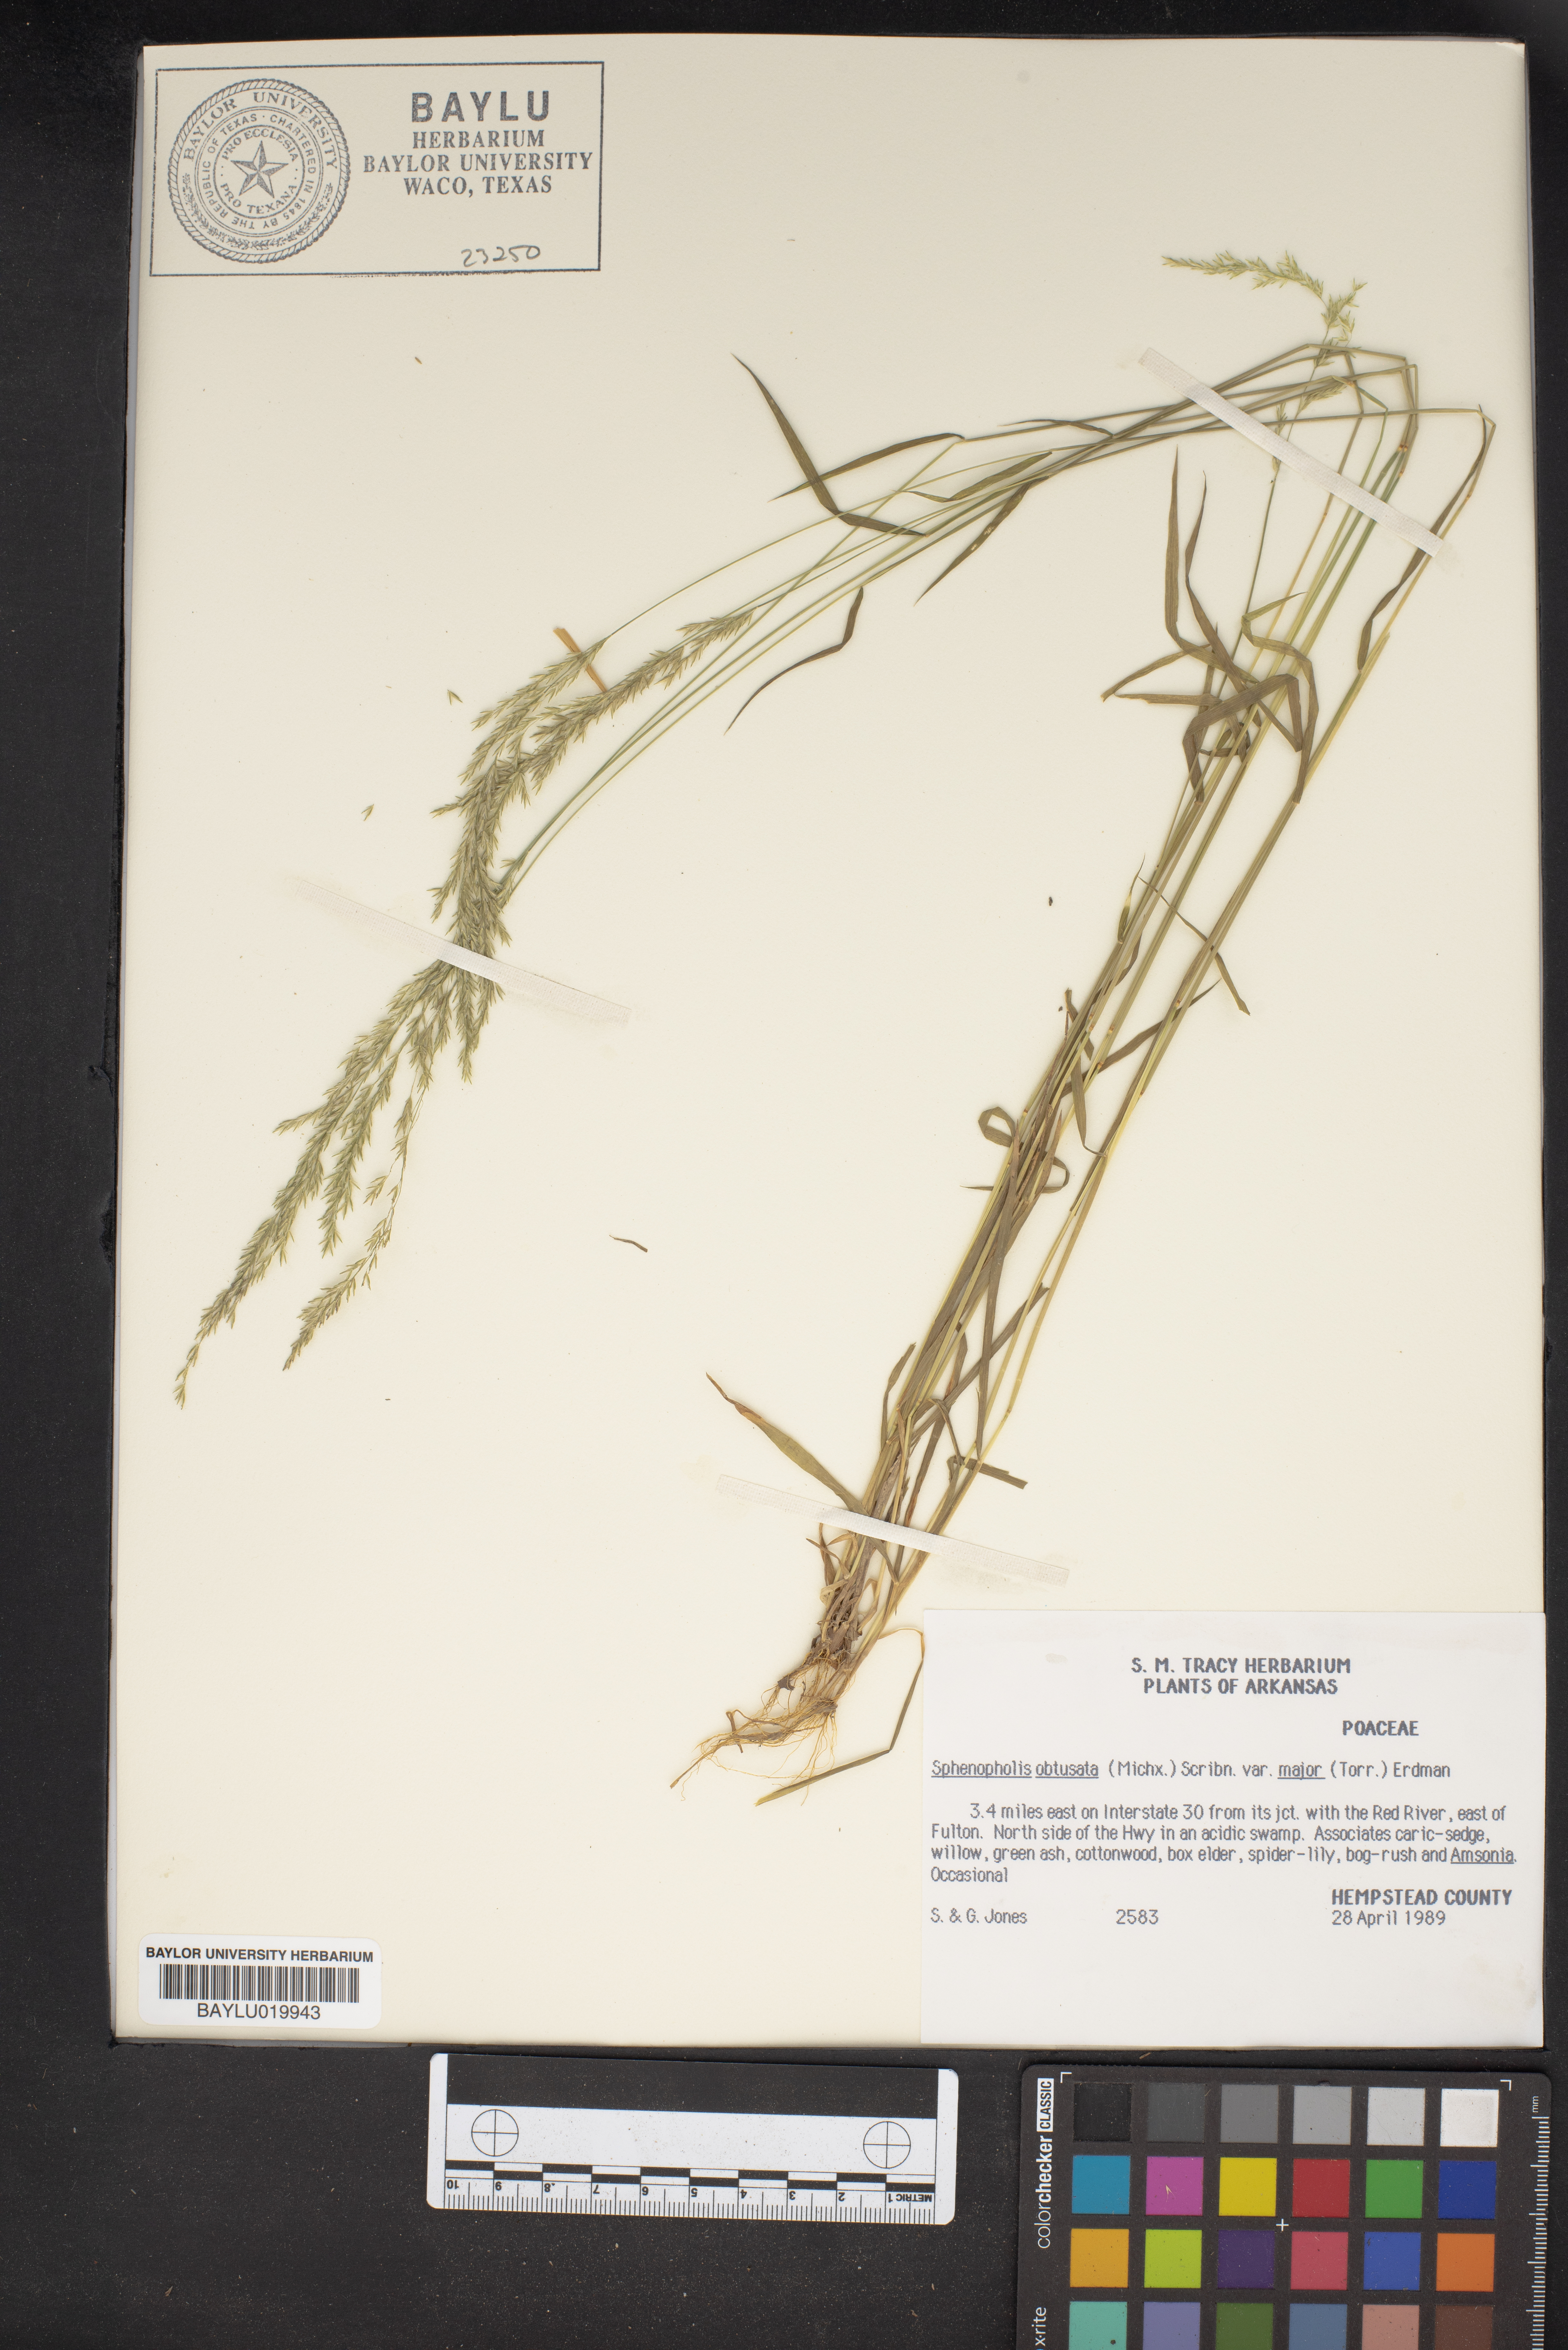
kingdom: Plantae
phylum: Tracheophyta
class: Liliopsida
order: Poales
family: Poaceae
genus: Sphenopholis
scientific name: Sphenopholis obtusata
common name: Prairie grass
